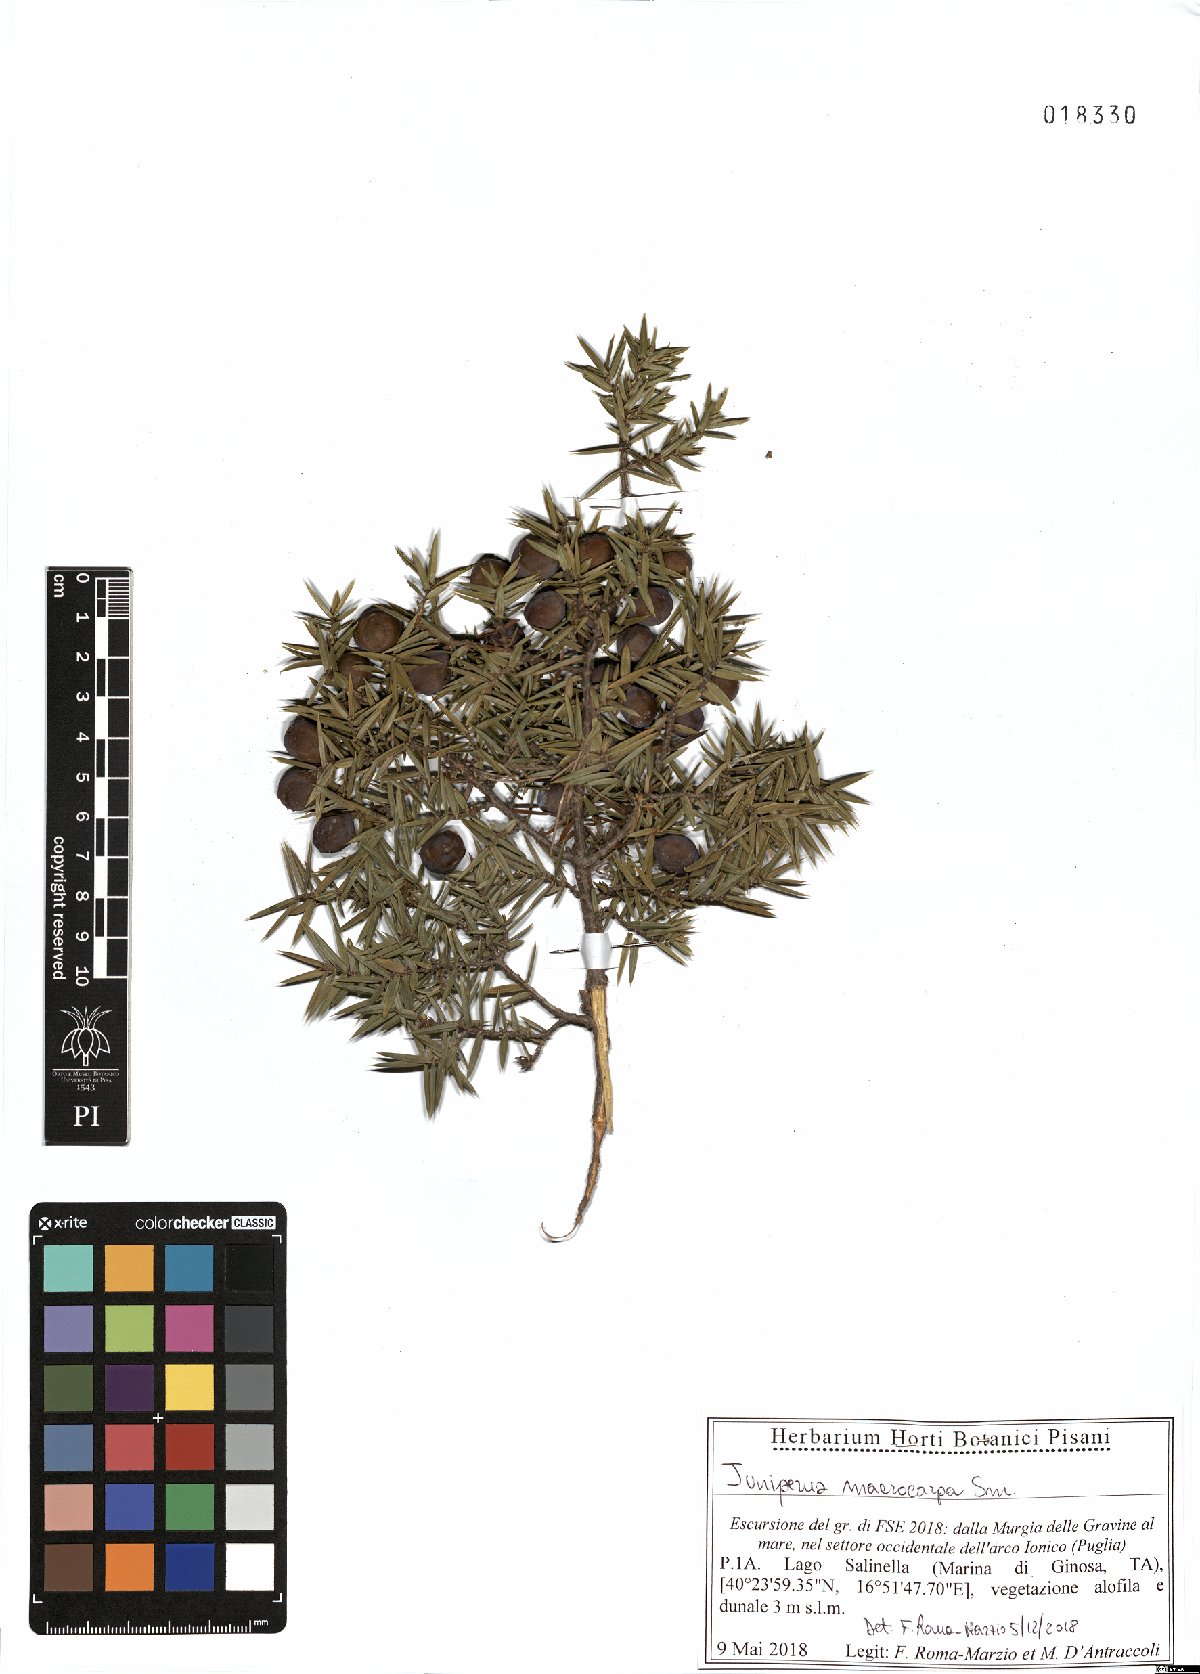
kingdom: Plantae
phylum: Tracheophyta
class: Pinopsida
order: Pinales
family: Cupressaceae
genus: Juniperus
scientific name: Juniperus oxycedrus
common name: Prickly juniper
